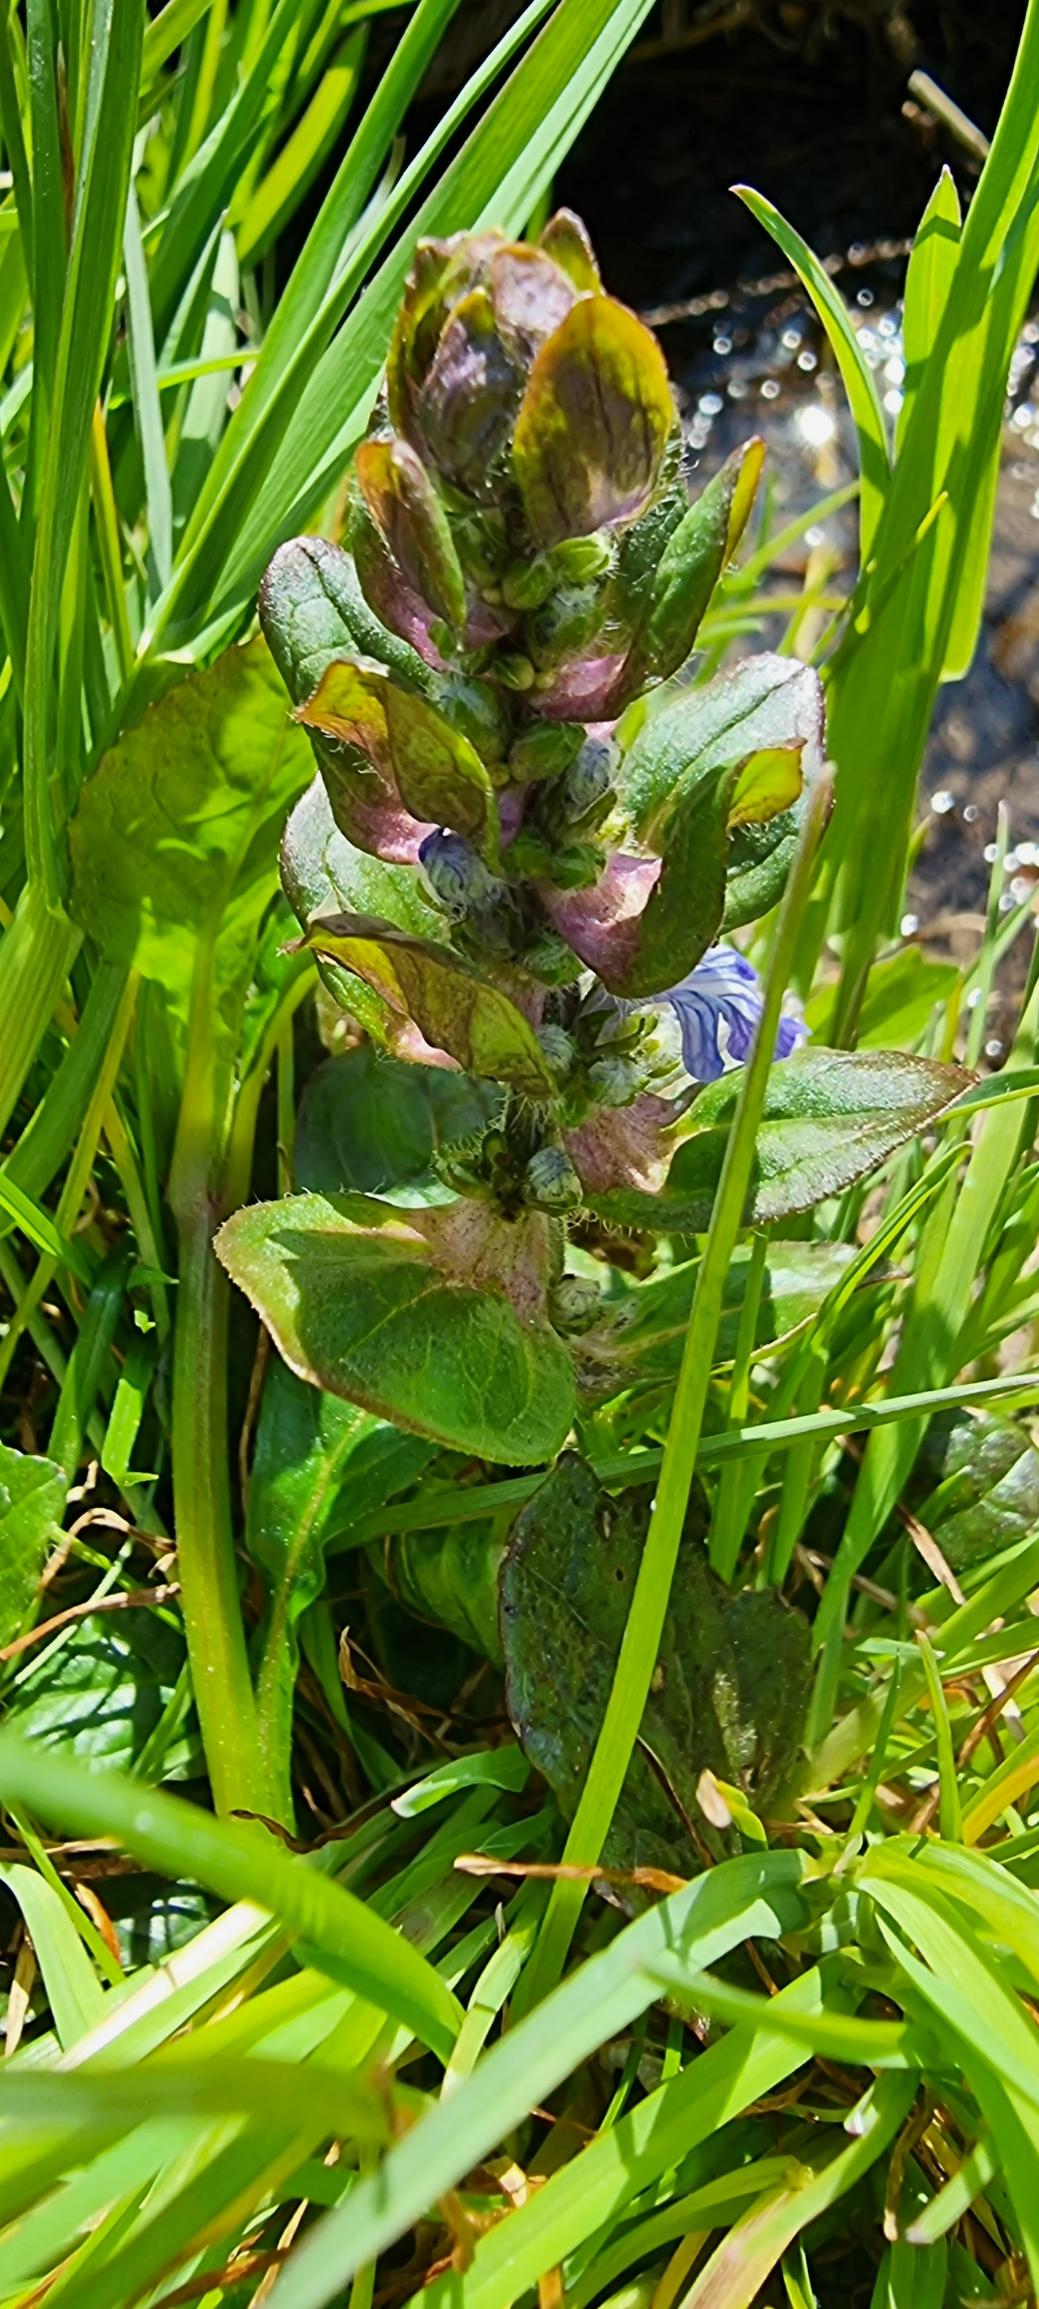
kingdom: Plantae
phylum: Tracheophyta
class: Magnoliopsida
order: Lamiales
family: Lamiaceae
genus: Ajuga
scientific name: Ajuga reptans
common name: Krybende læbeløs
